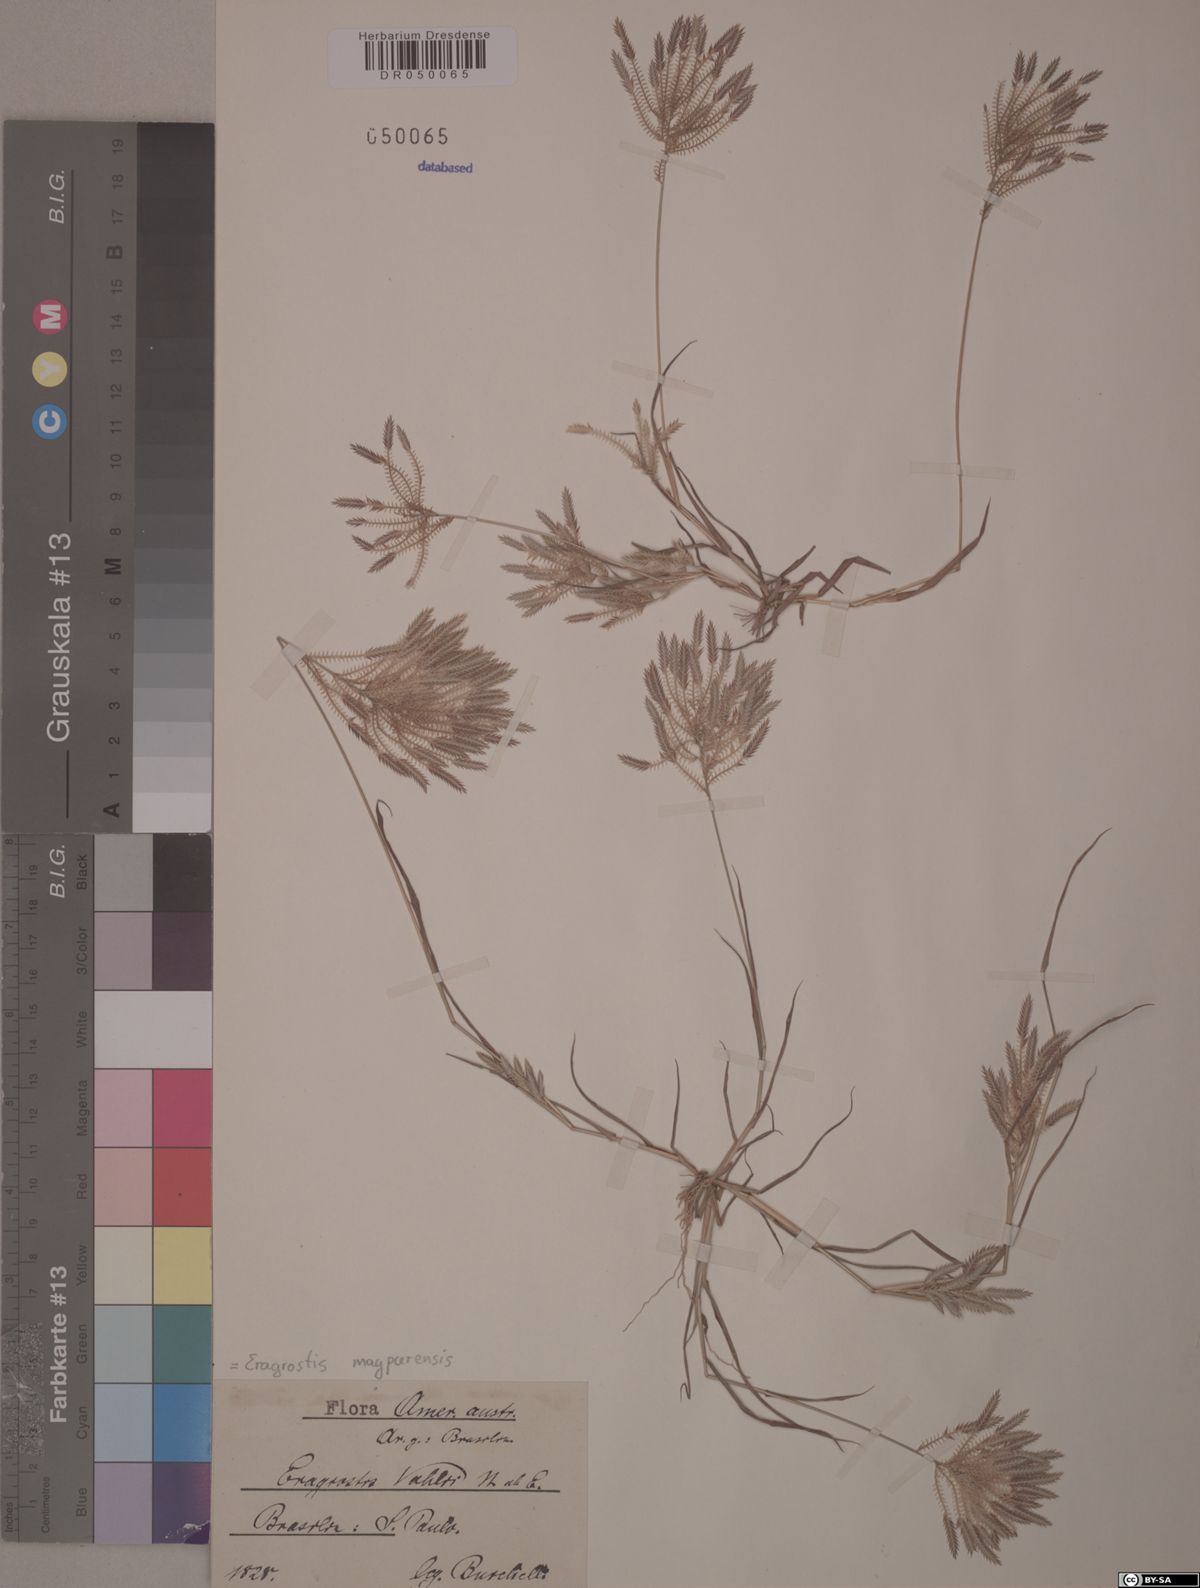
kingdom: Plantae
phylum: Tracheophyta
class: Liliopsida
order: Poales
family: Poaceae
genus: Eragrostis
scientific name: Eragrostis maypurensis
